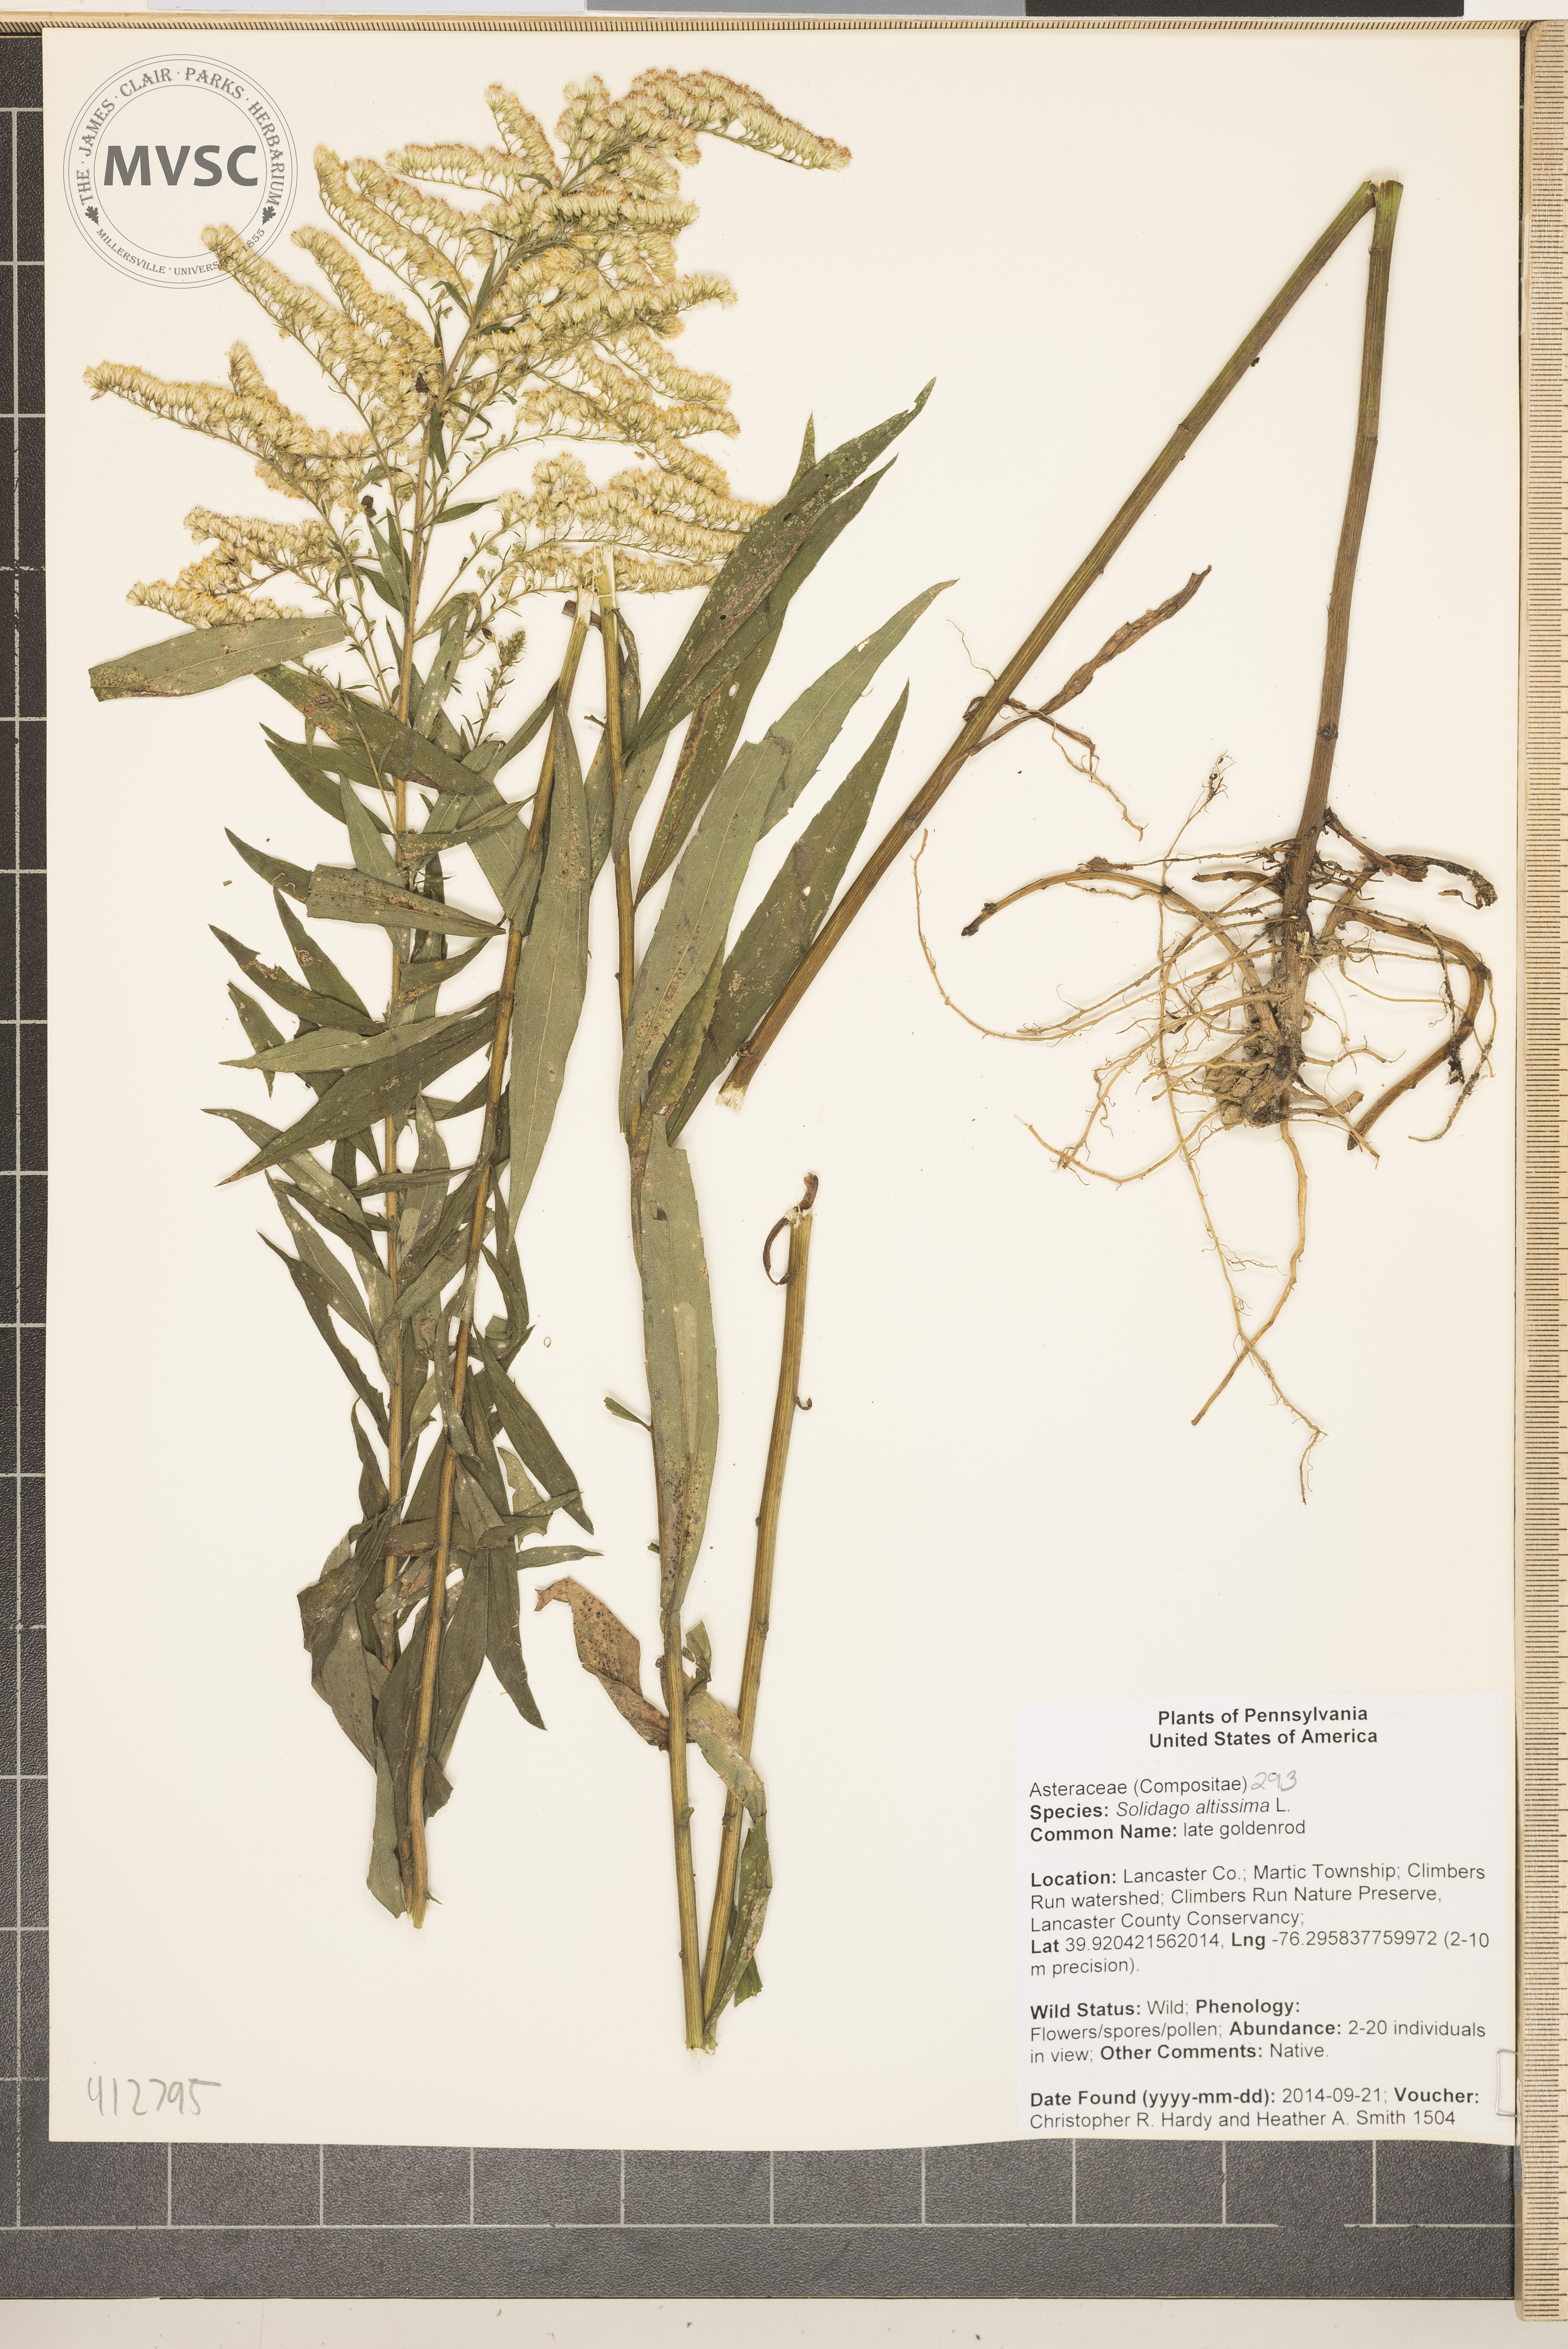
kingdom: Plantae
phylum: Tracheophyta
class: Magnoliopsida
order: Asterales
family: Asteraceae
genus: Solidago
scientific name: Solidago altissima
